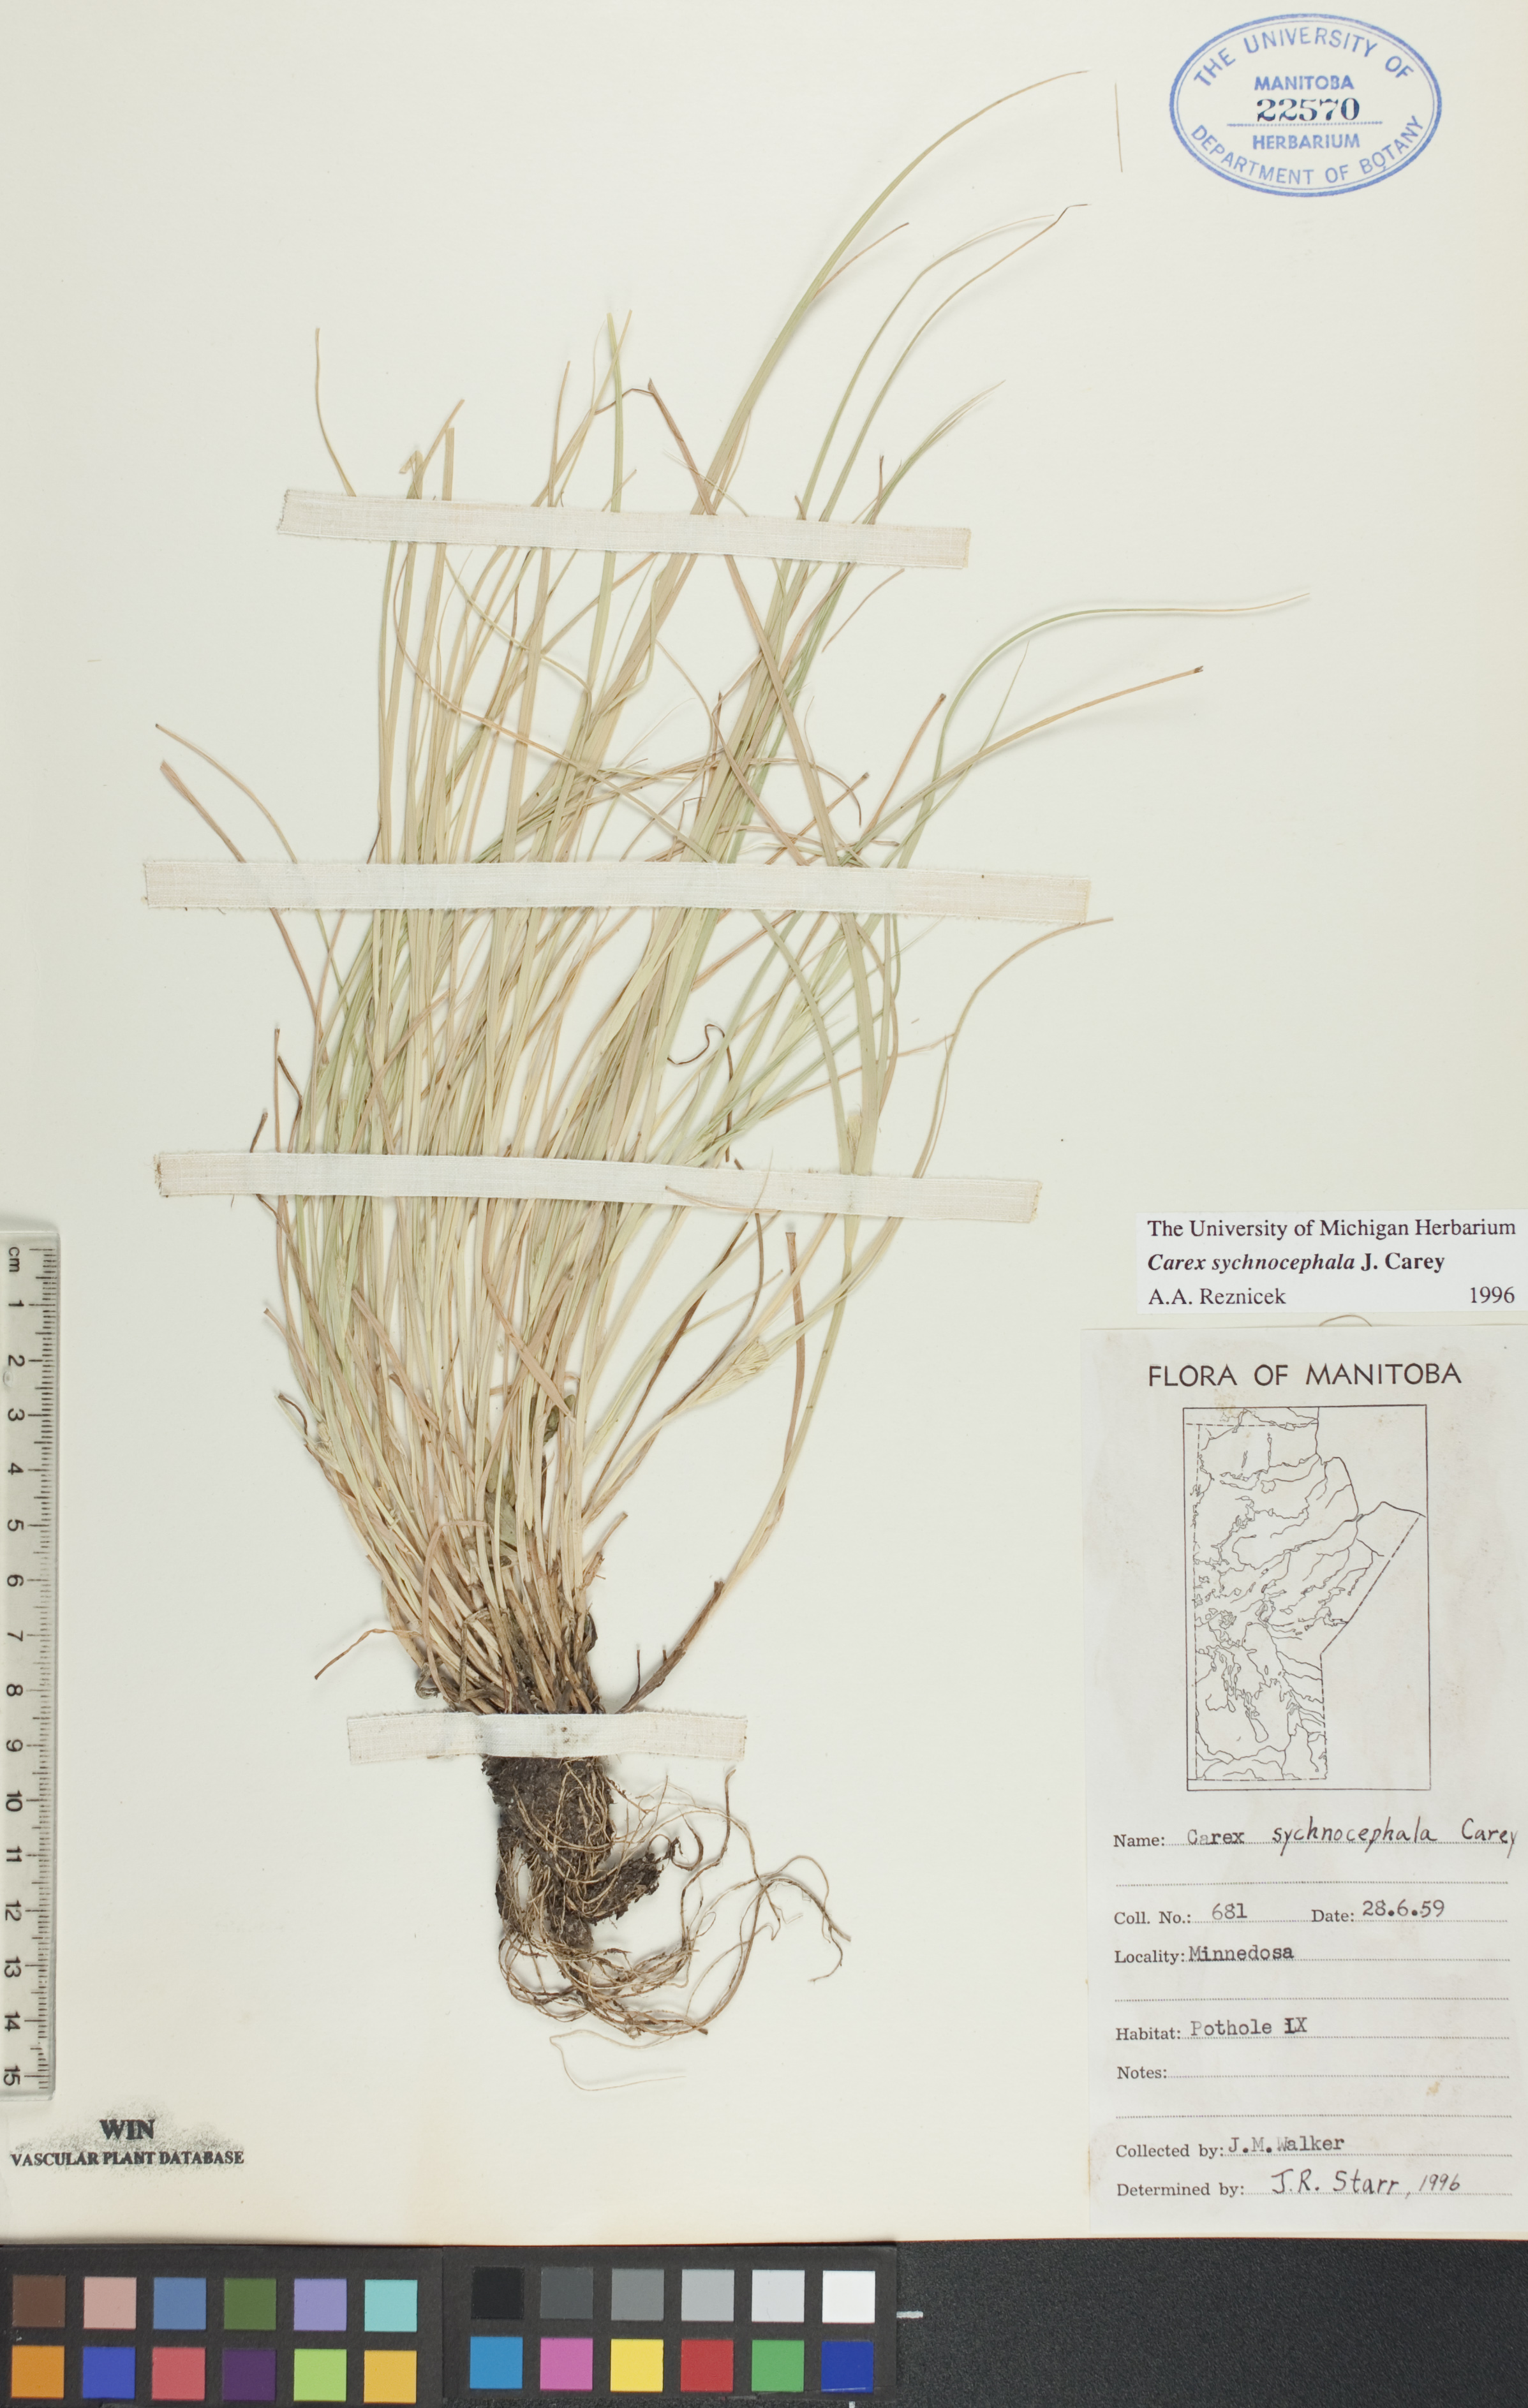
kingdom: Plantae
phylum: Tracheophyta
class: Liliopsida
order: Poales
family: Cyperaceae
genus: Carex
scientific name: Carex sychnocephala
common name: Dense long-beaked sedge
